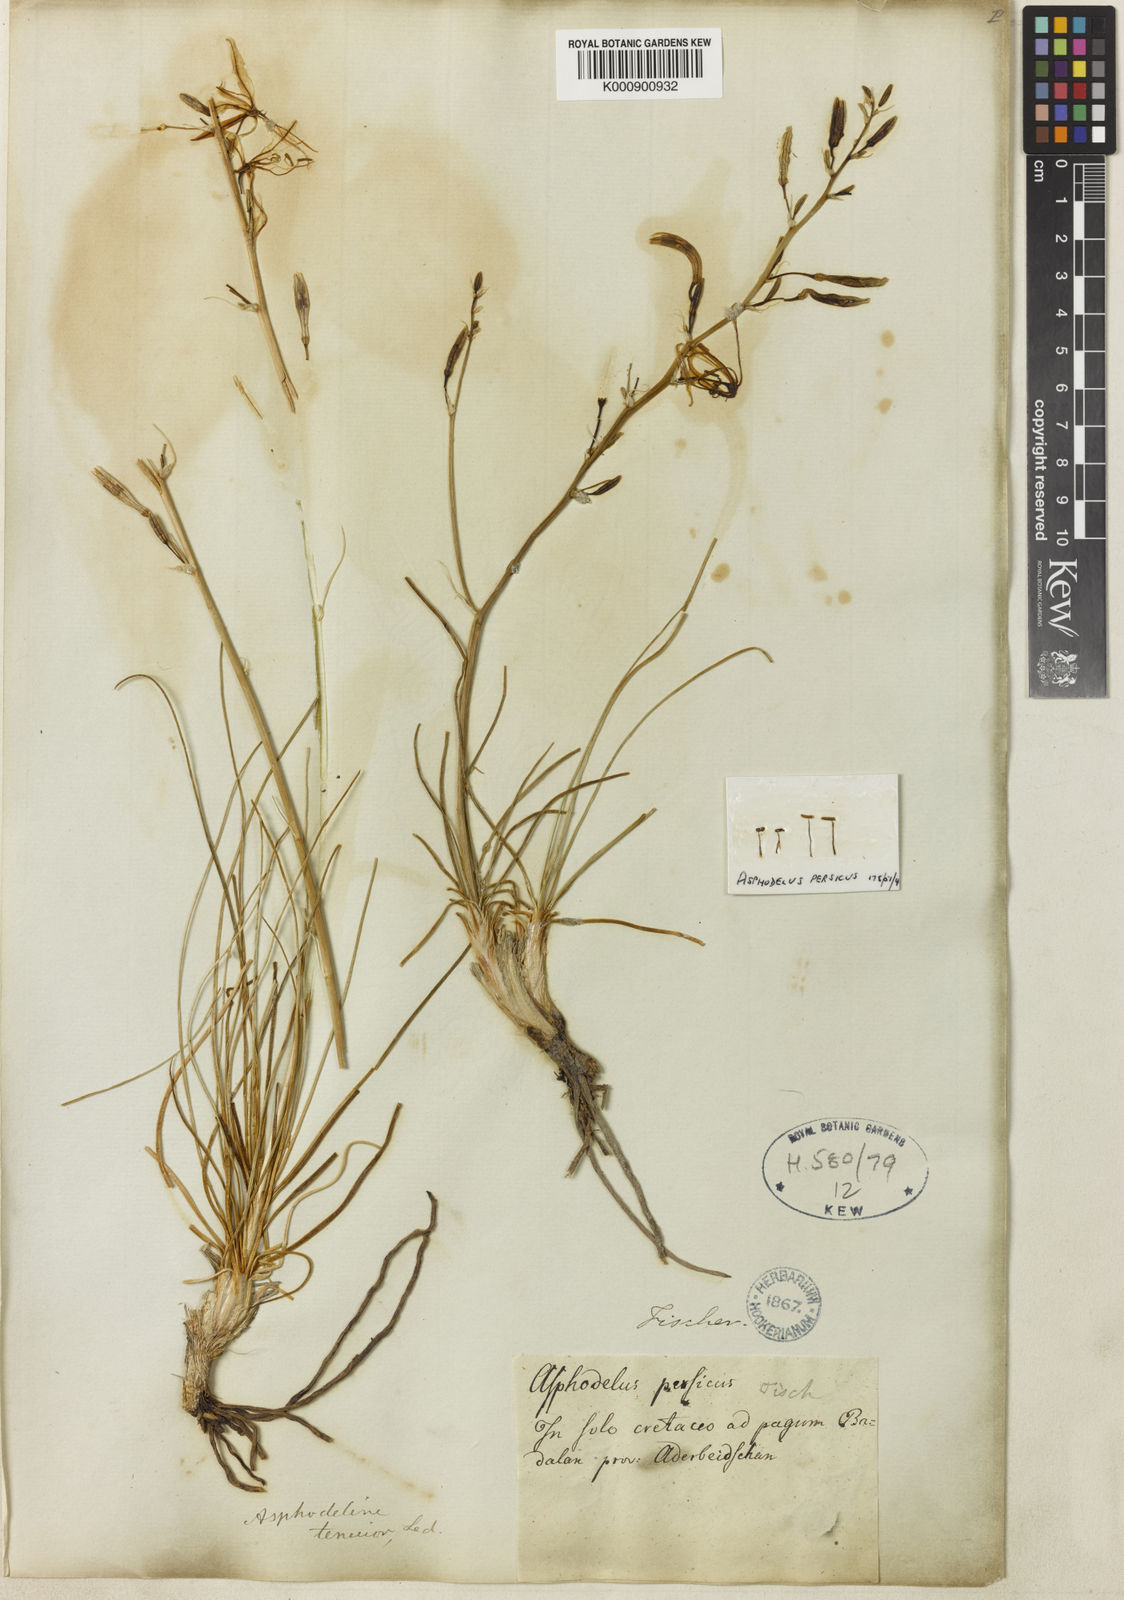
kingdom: Plantae
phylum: Tracheophyta
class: Liliopsida
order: Asparagales
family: Asphodelaceae
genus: Asphodeline
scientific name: Asphodeline tenuior
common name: Thin asphodeline
